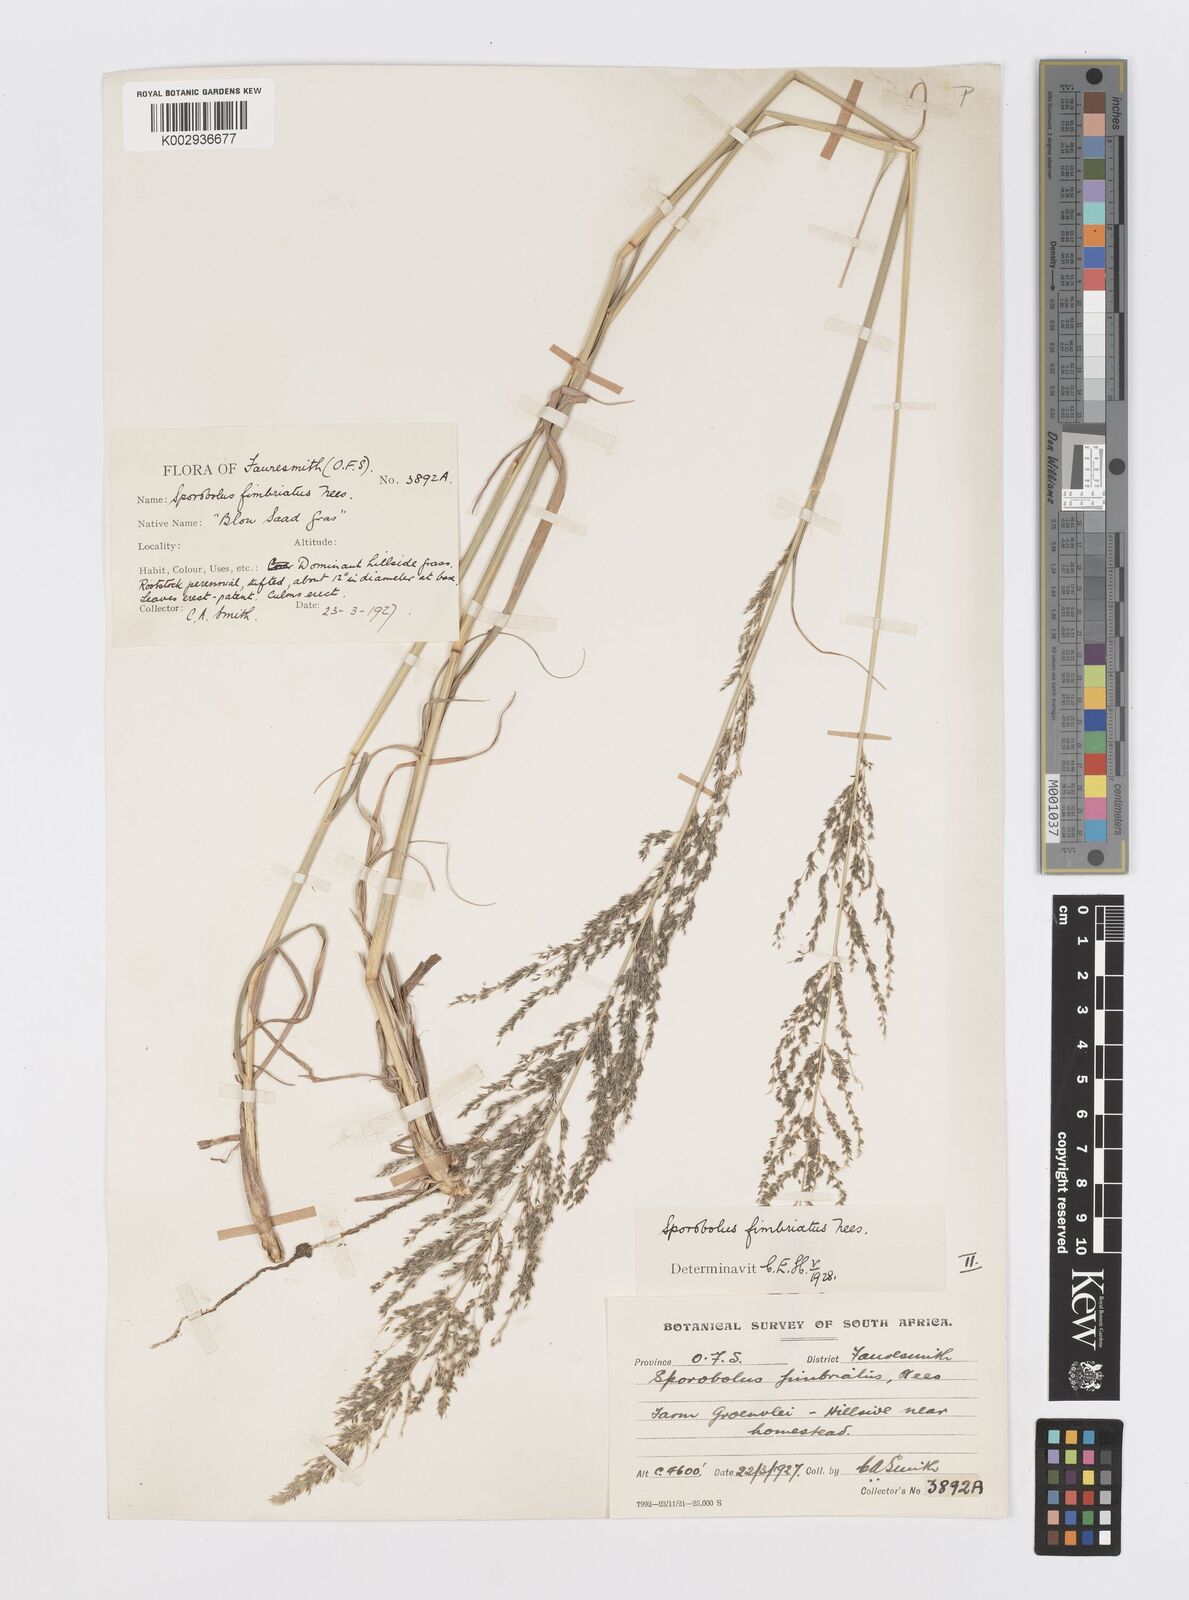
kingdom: Plantae
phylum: Tracheophyta
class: Liliopsida
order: Poales
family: Poaceae
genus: Sporobolus
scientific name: Sporobolus fimbriatus
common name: Fringed dropseed
